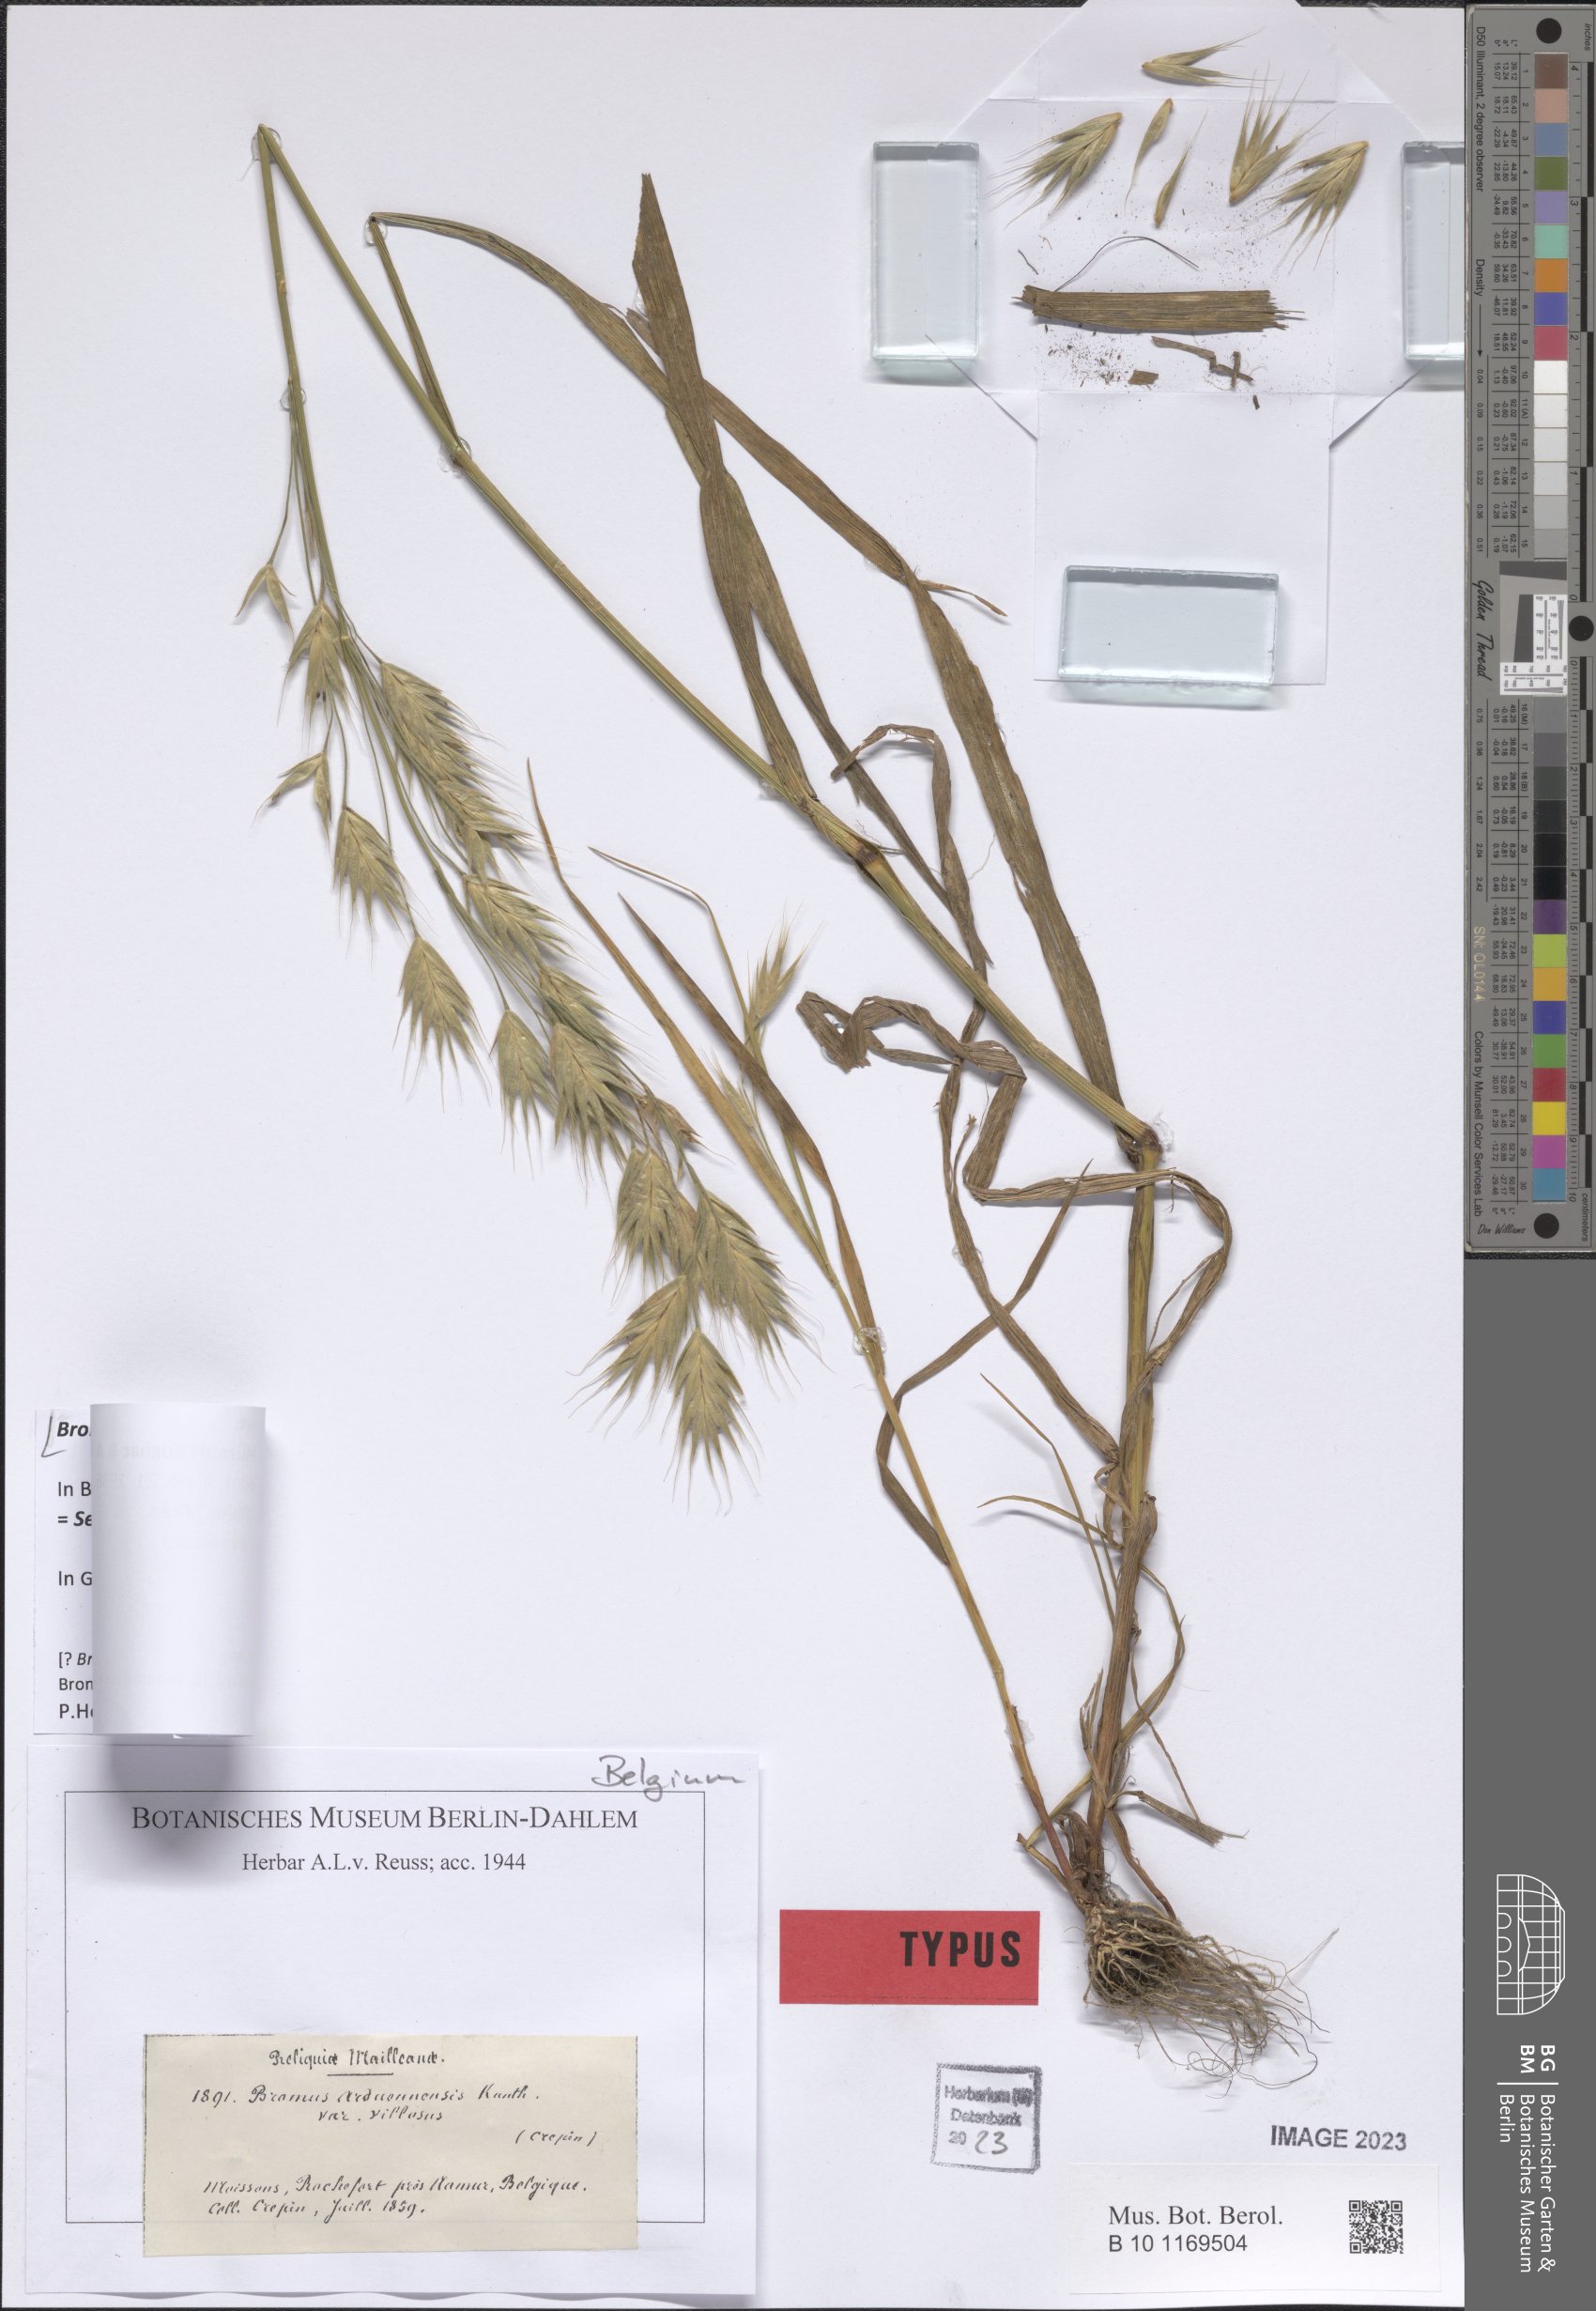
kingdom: Plantae
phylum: Tracheophyta
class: Liliopsida
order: Poales
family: Poaceae
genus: Bromus
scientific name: Bromus grossus
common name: Whiskered brome
